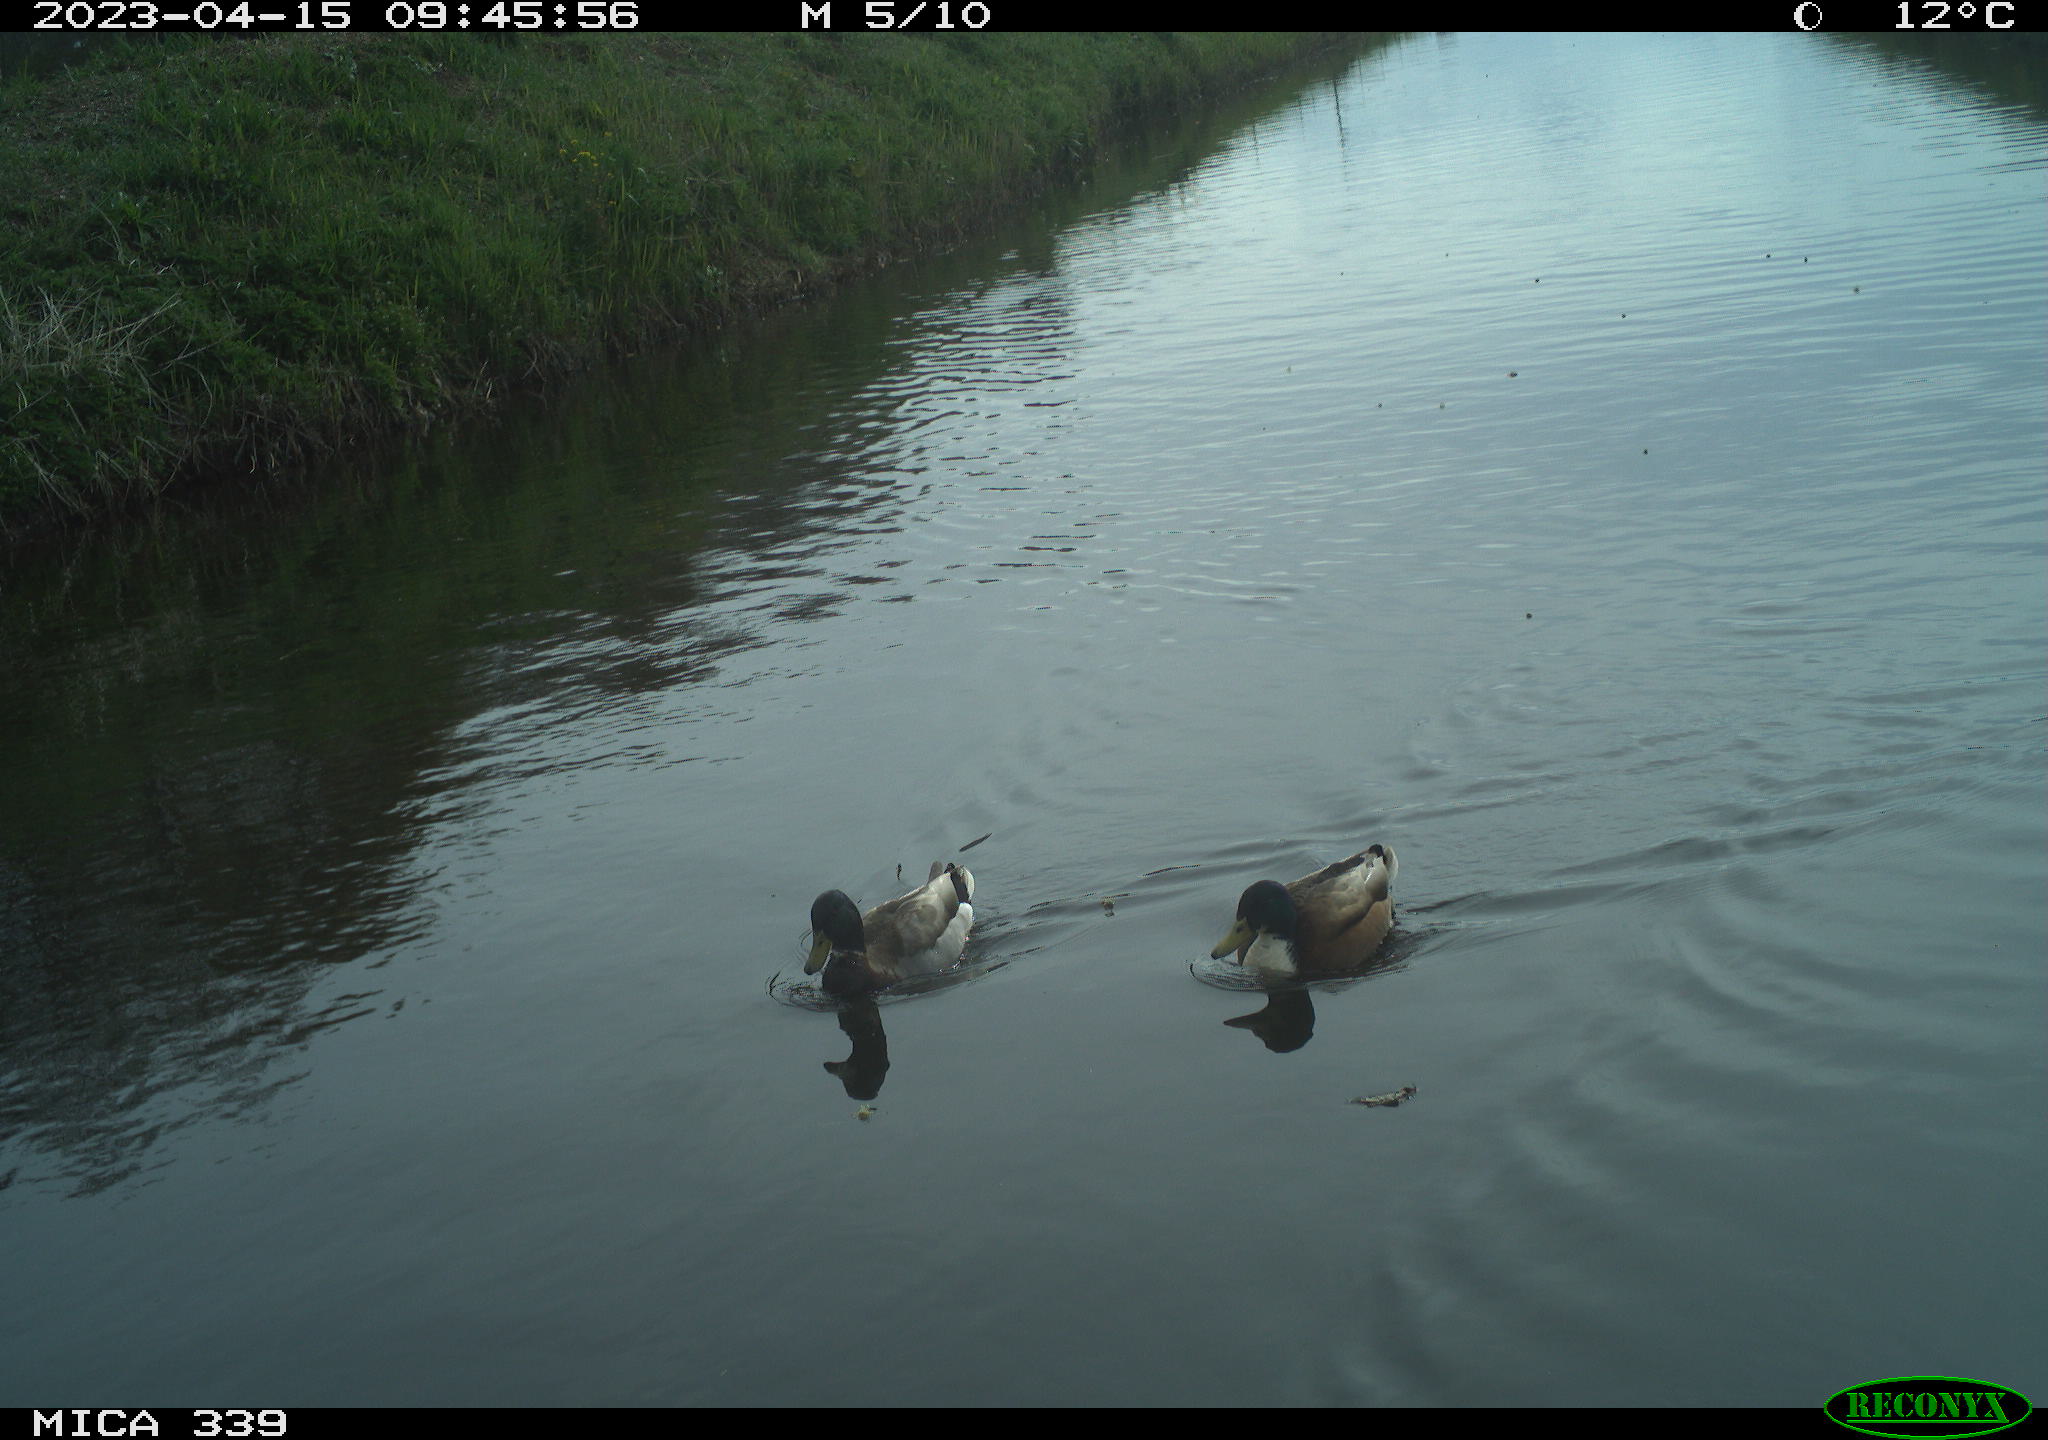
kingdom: Animalia
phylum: Chordata
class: Aves
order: Anseriformes
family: Anatidae
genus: Anas
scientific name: Anas platyrhynchos
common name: Mallard
